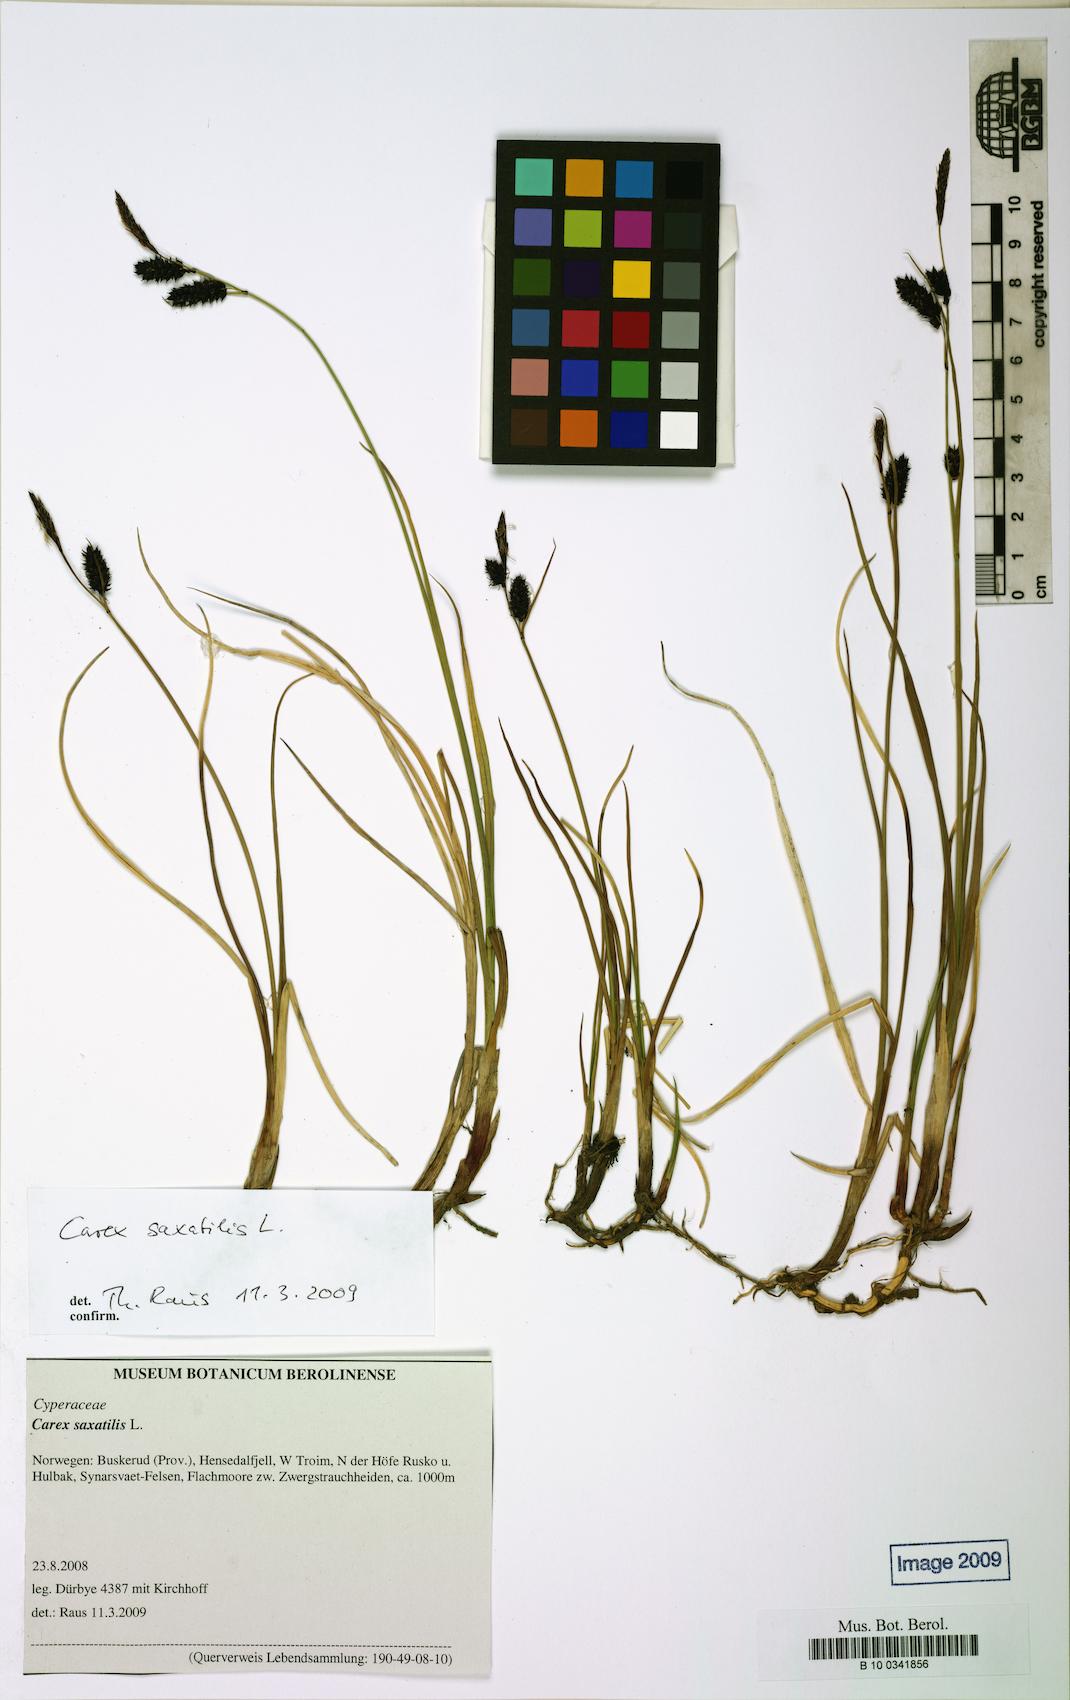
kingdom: Plantae
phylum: Tracheophyta
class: Liliopsida
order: Poales
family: Cyperaceae
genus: Carex
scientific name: Carex saxatilis
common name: Russet sedge
